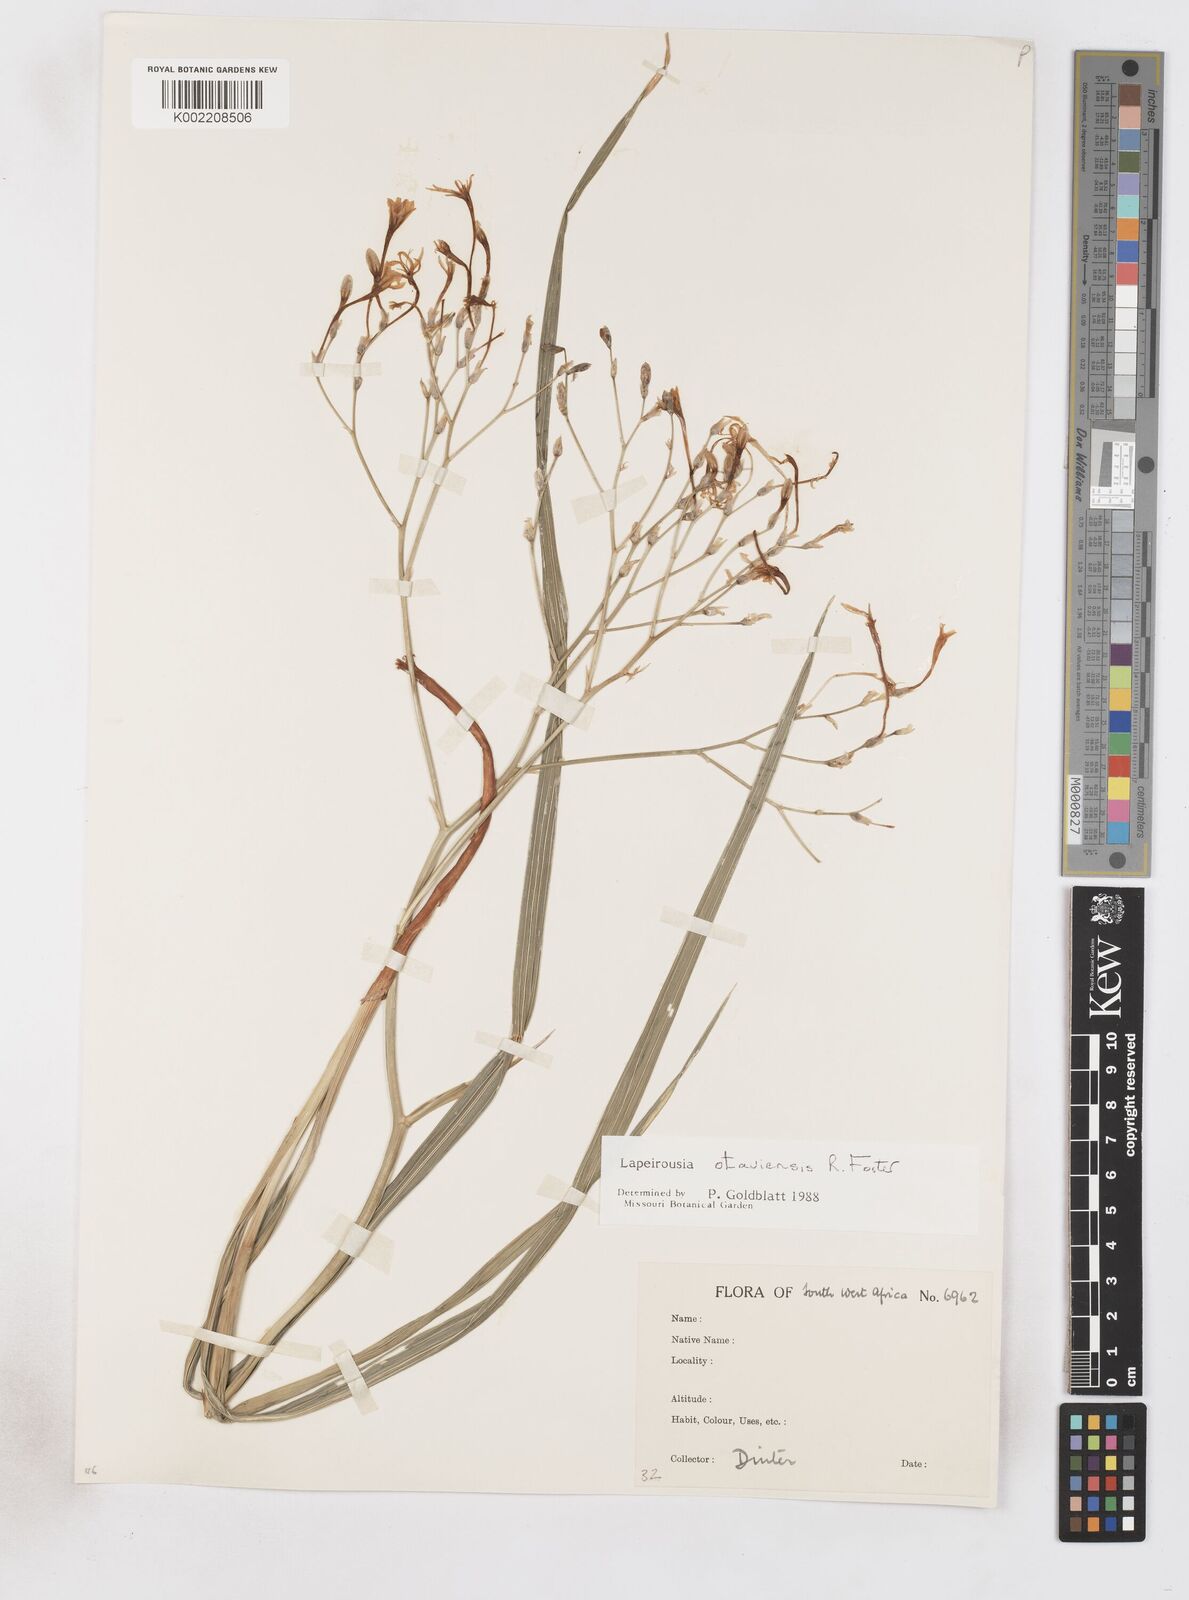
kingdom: Plantae
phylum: Tracheophyta
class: Liliopsida
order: Asparagales
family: Iridaceae
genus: Afrosolen
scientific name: Afrosolen otaviensis
